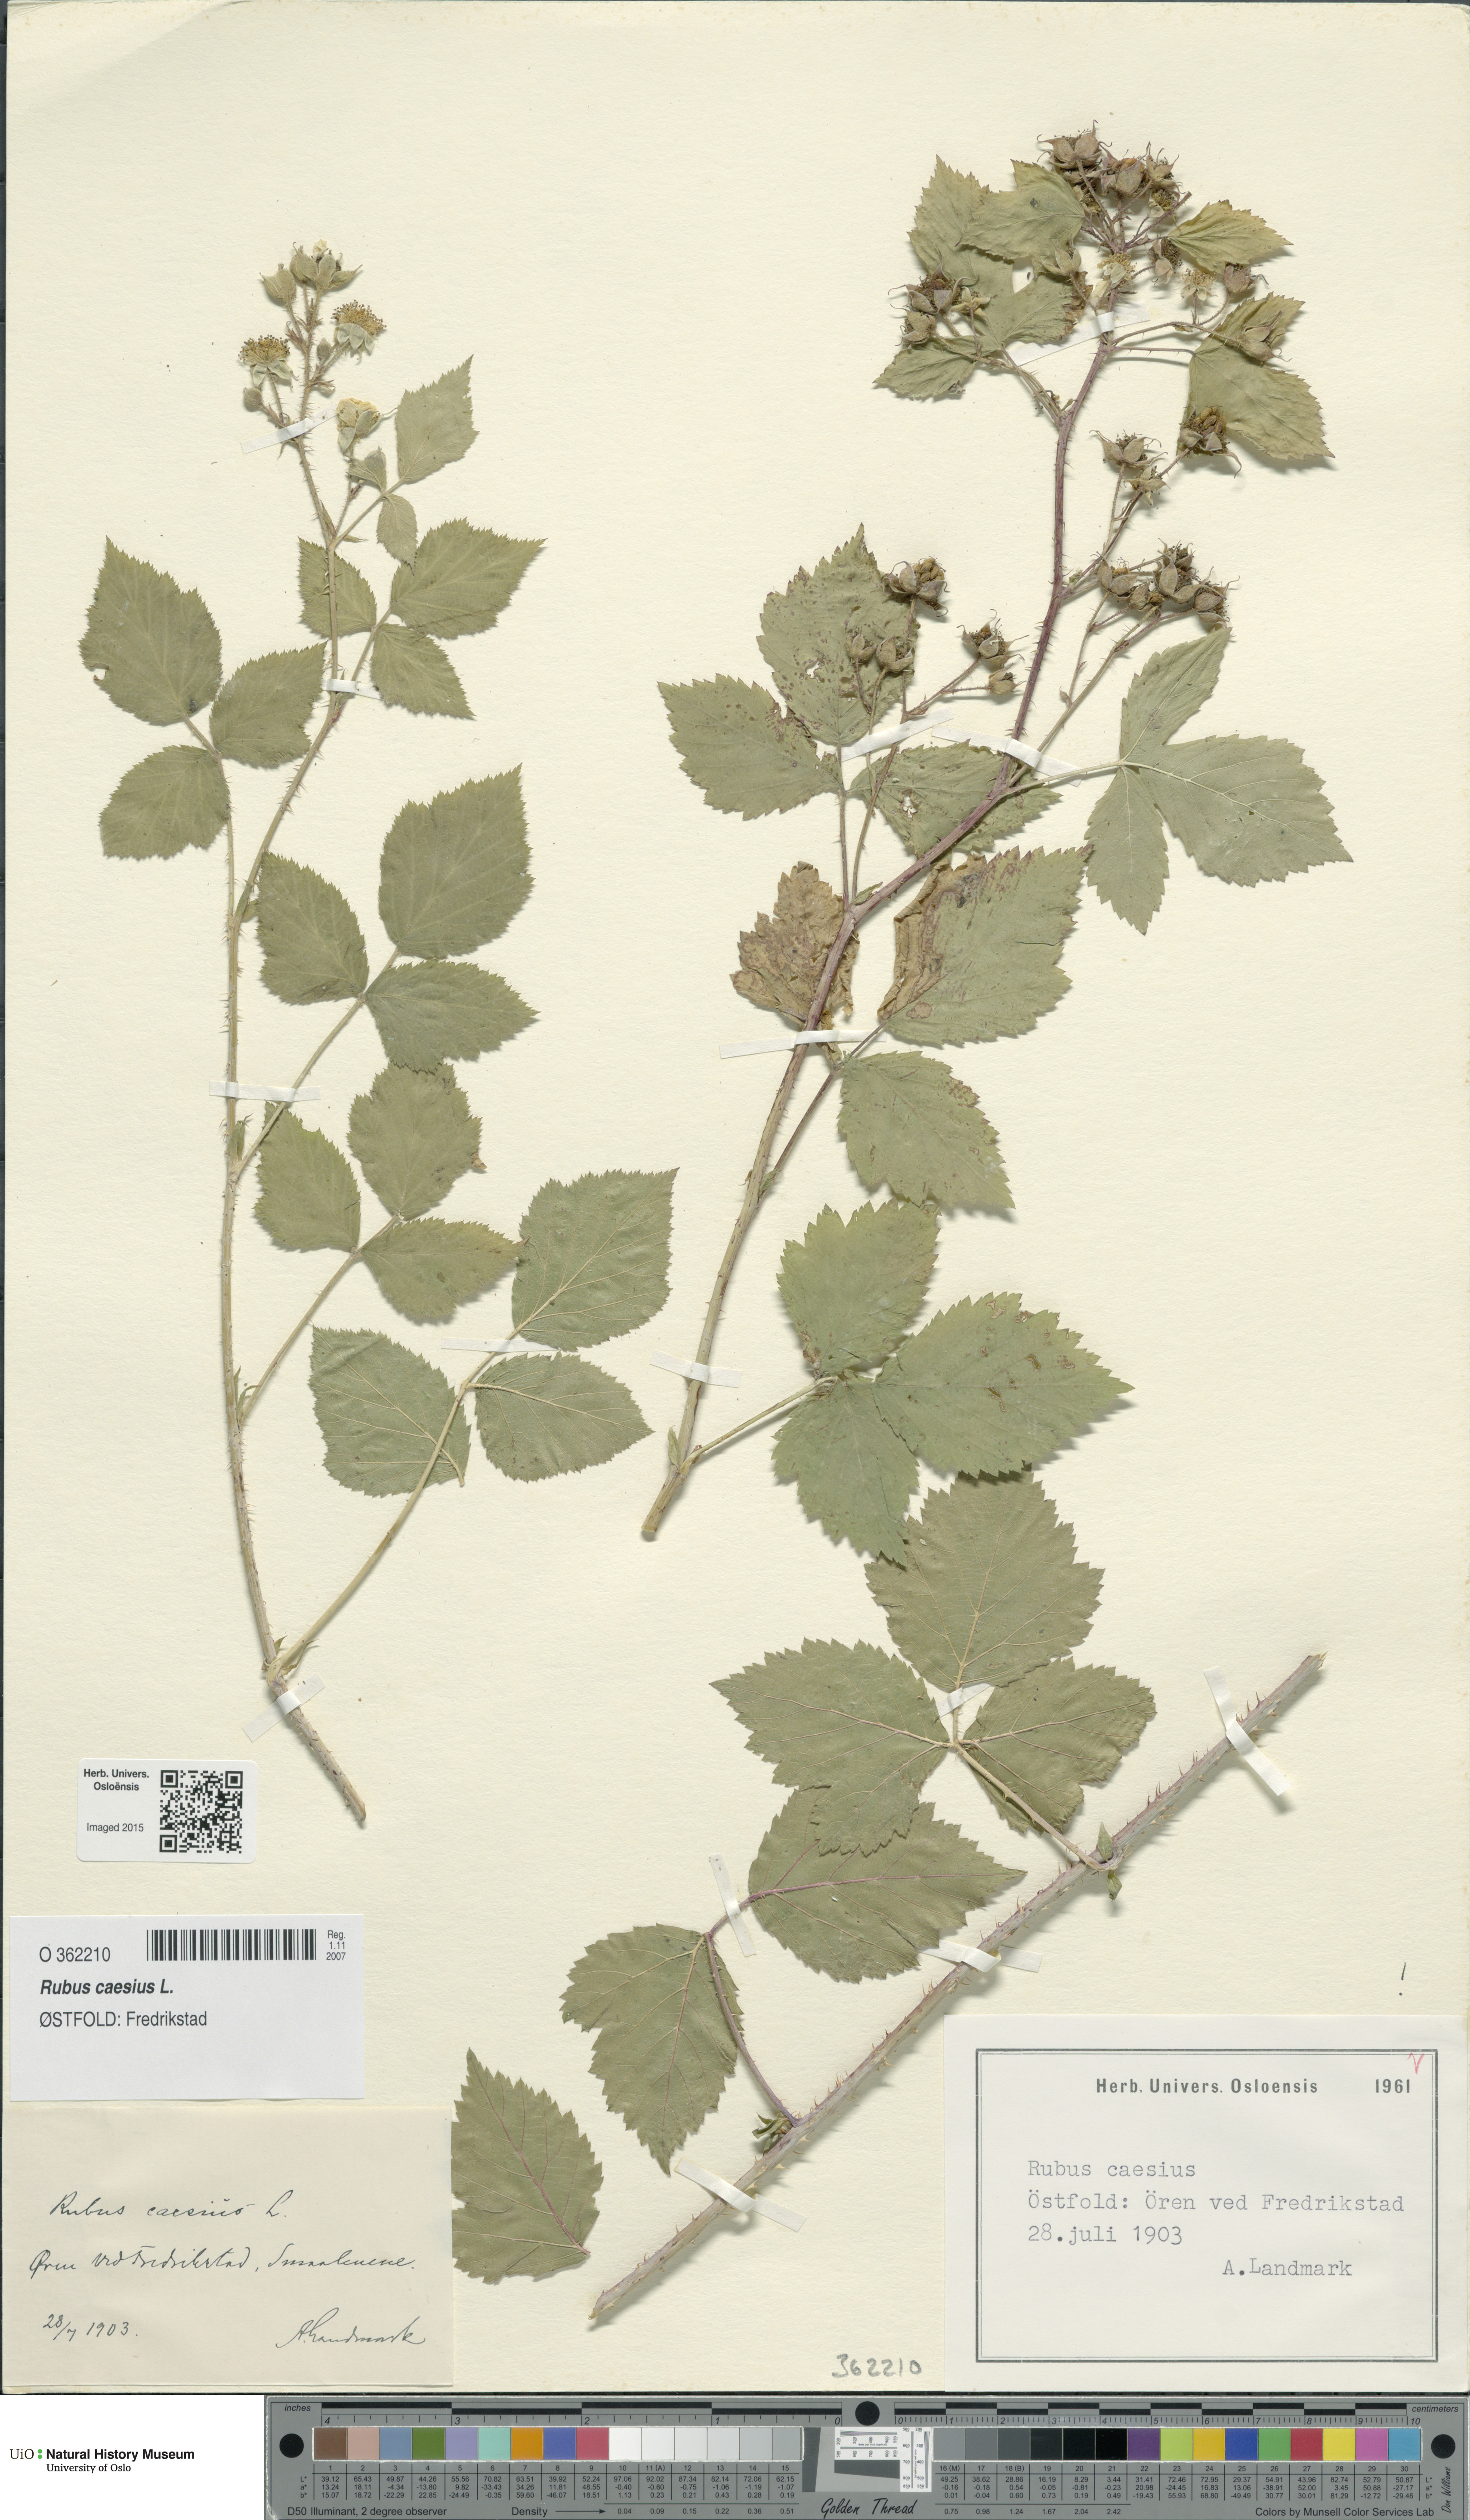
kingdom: Plantae
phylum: Tracheophyta
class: Magnoliopsida
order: Rosales
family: Rosaceae
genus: Rubus
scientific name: Rubus caesius
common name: Dewberry
